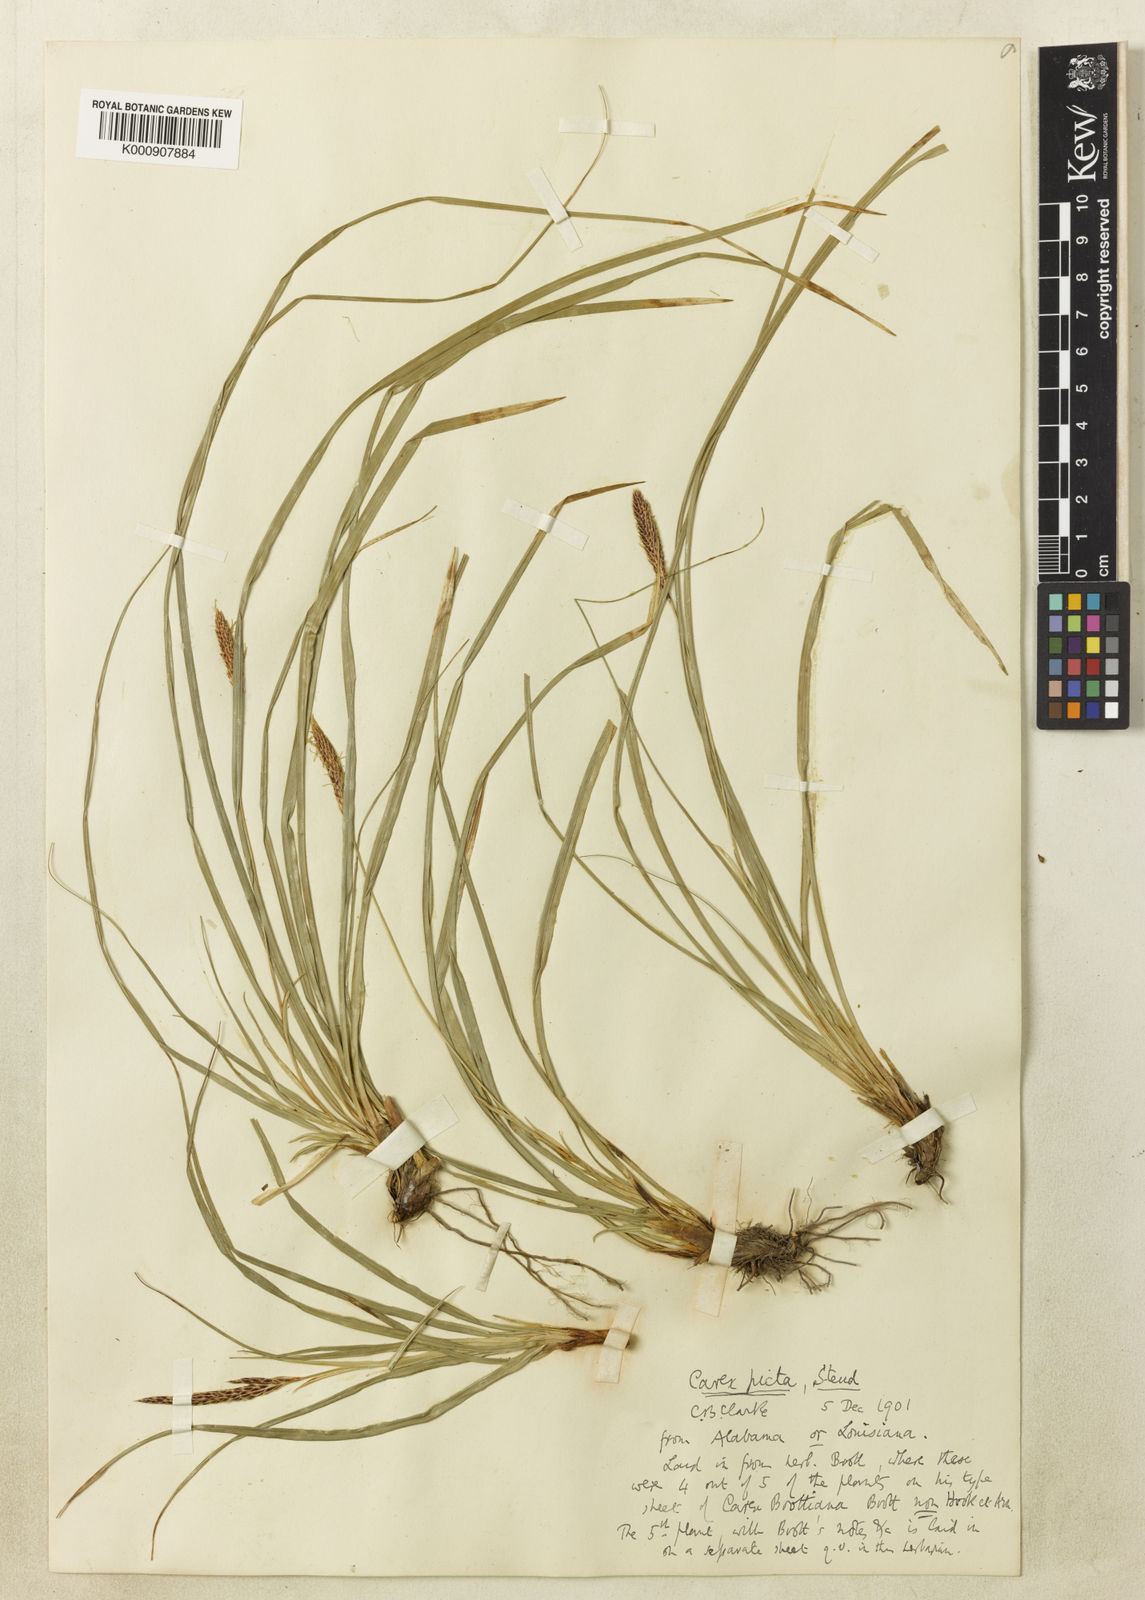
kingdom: Plantae
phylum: Tracheophyta
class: Liliopsida
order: Poales
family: Cyperaceae
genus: Carex
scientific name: Carex picta
